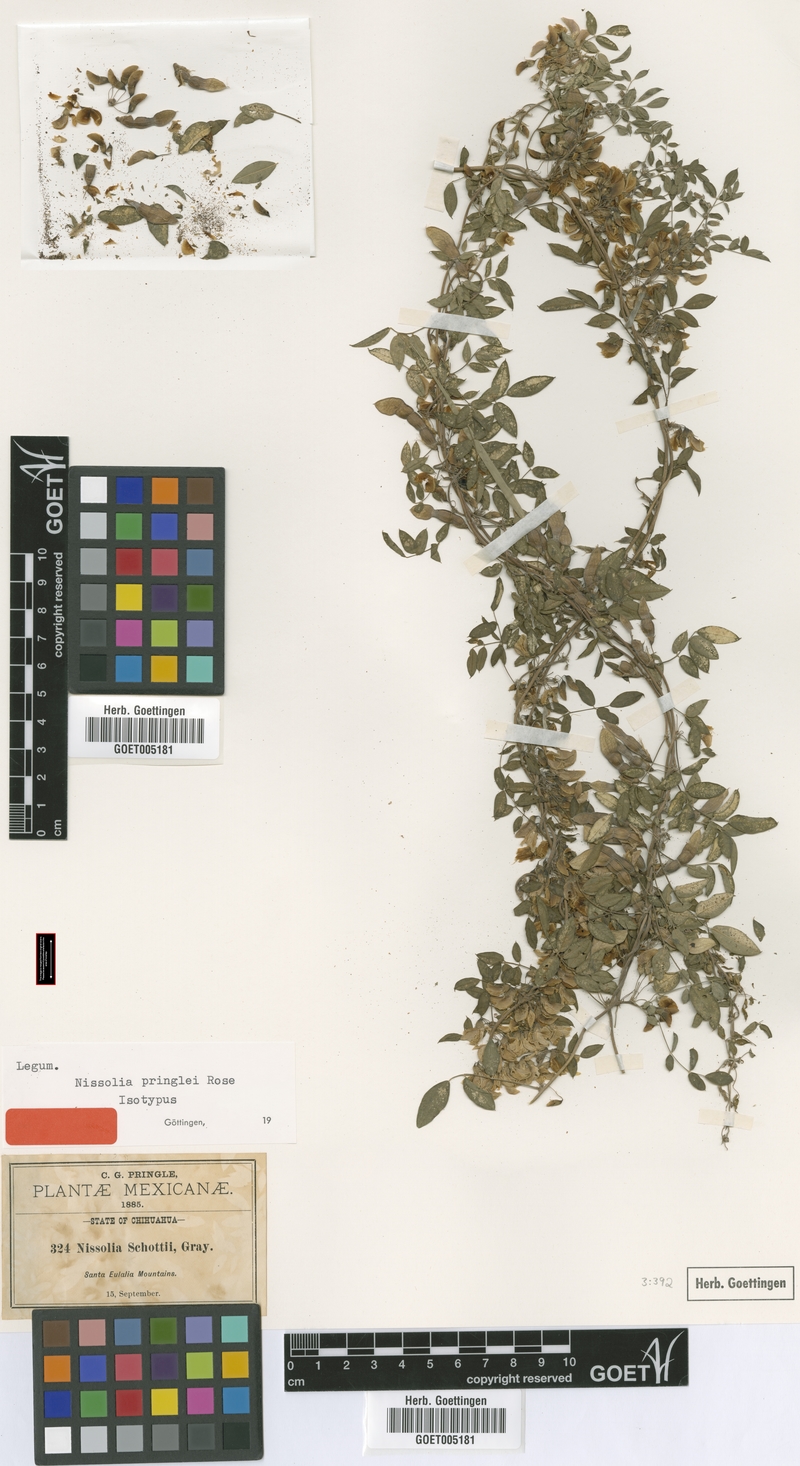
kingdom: Plantae
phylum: Tracheophyta
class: Magnoliopsida
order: Fabales
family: Fabaceae
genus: Nissolia
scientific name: Nissolia pringlei
